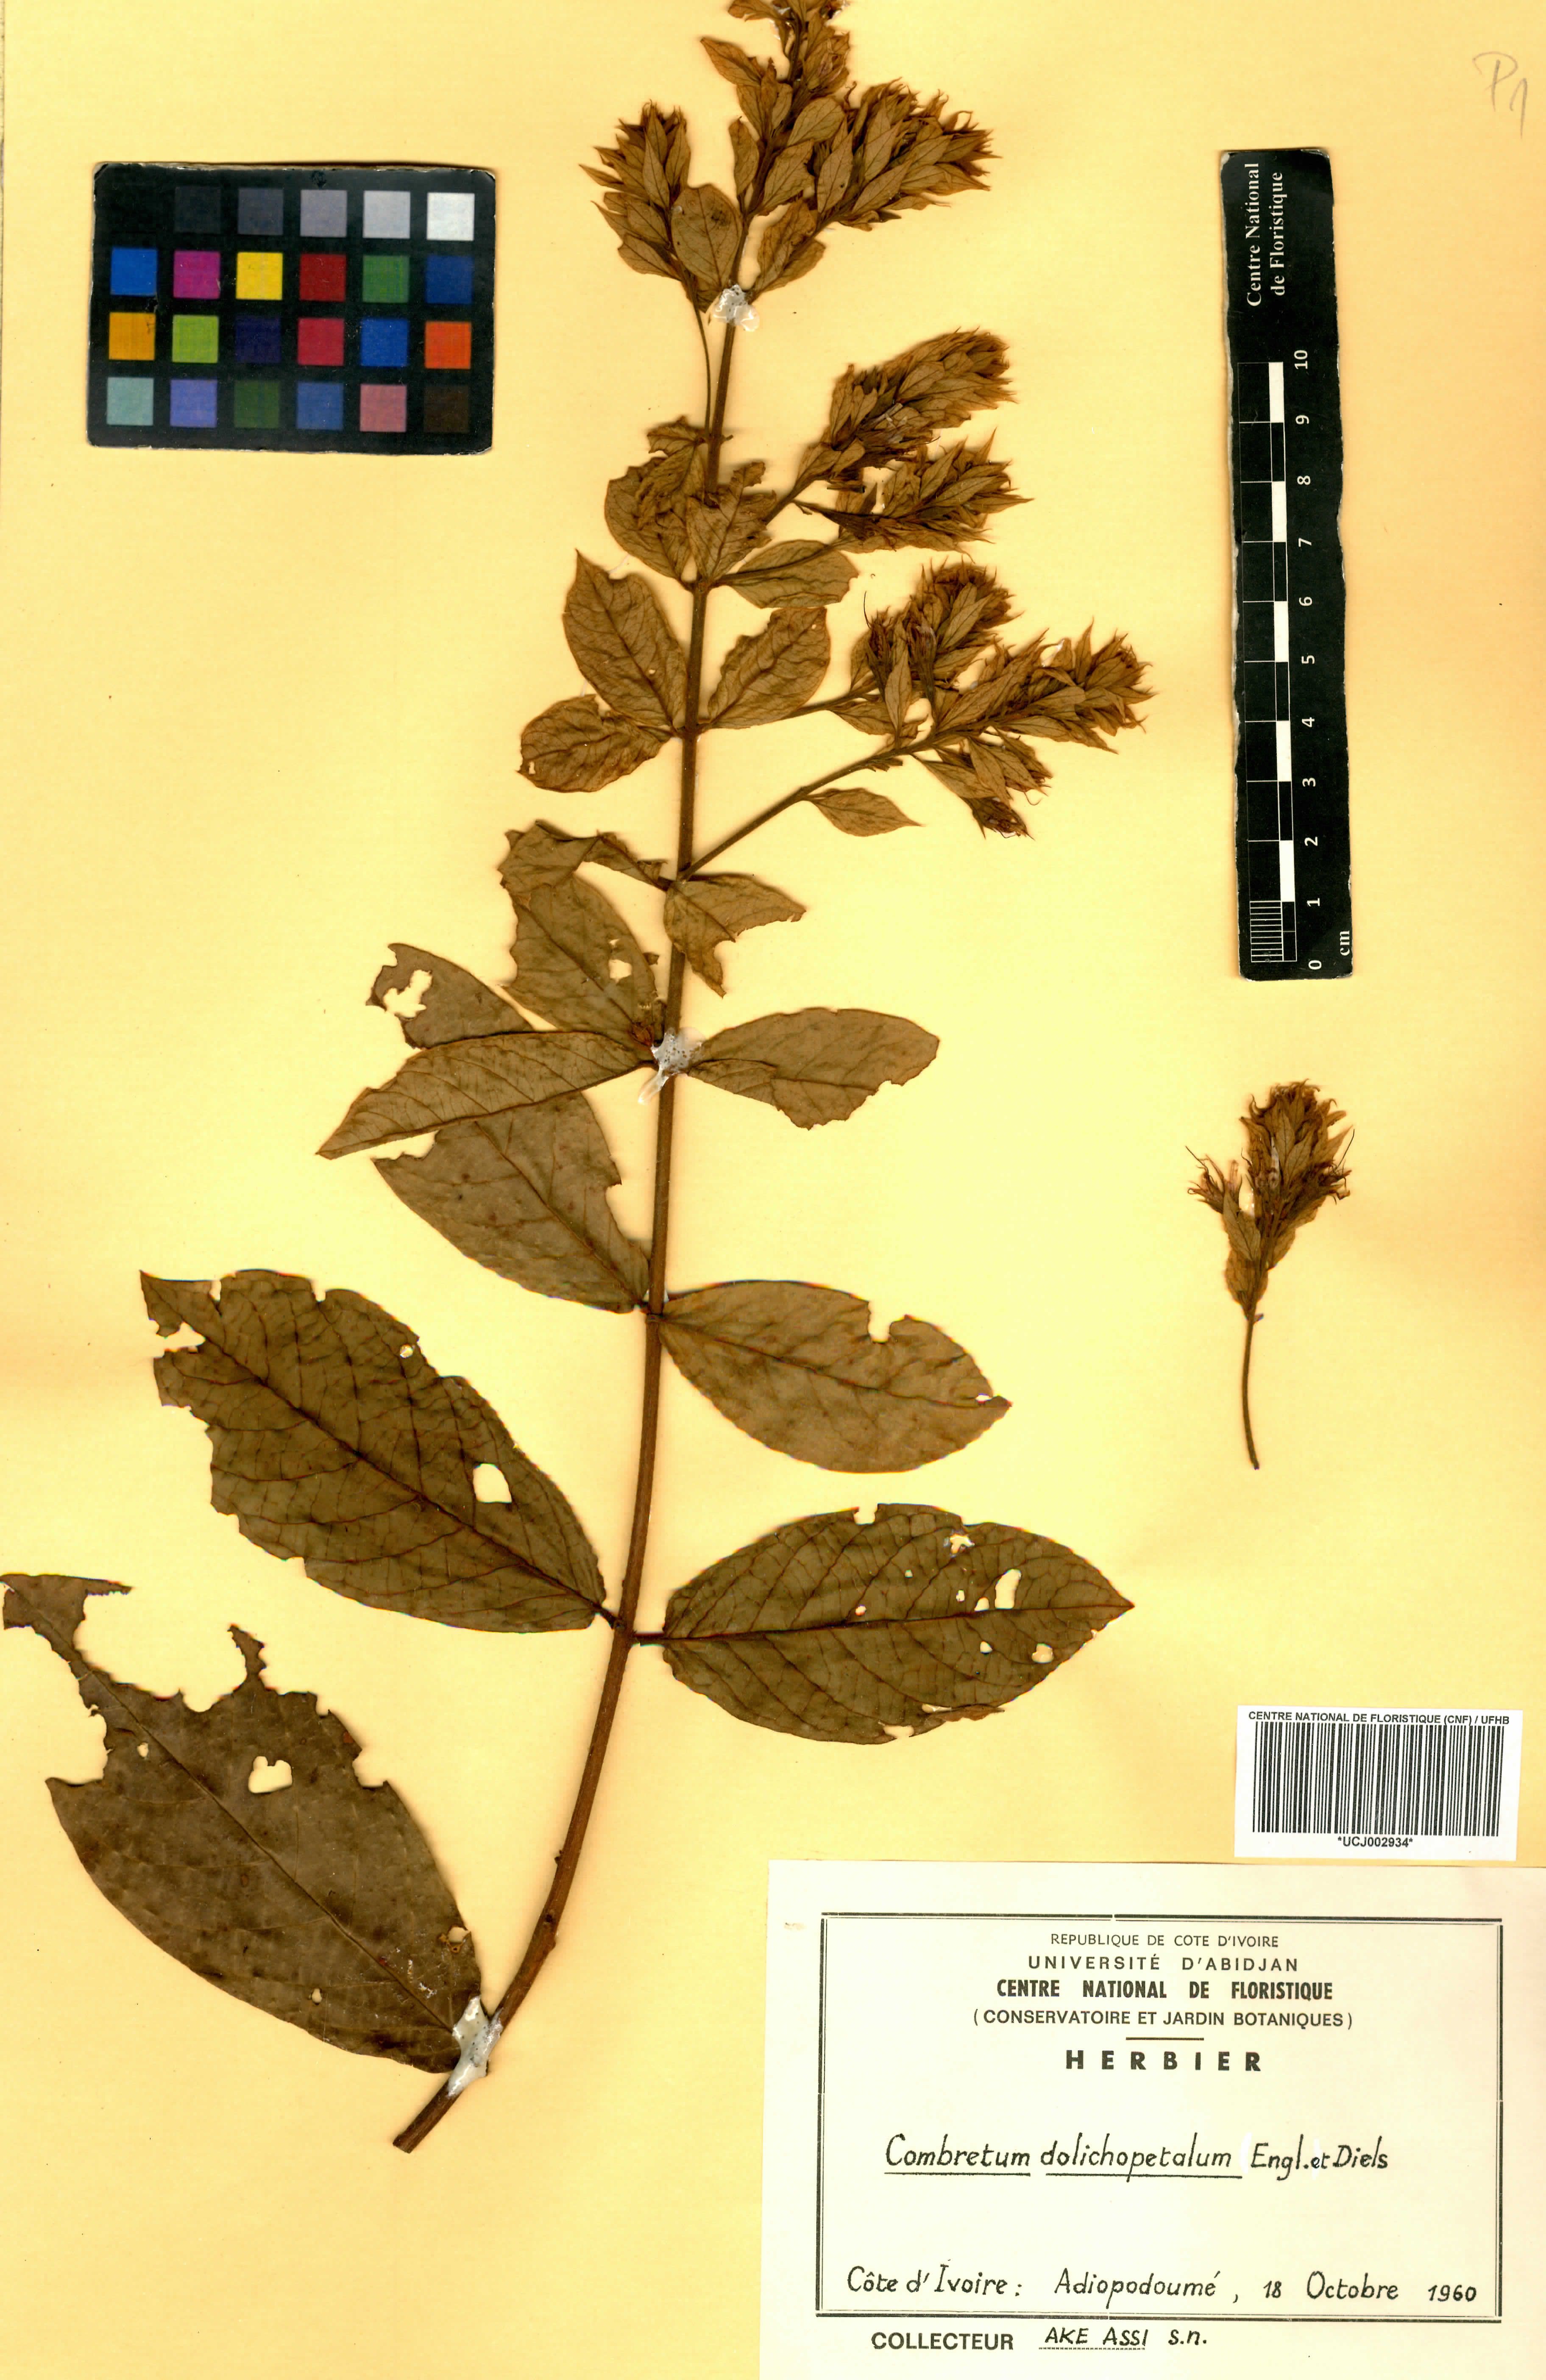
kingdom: Plantae
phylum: Tracheophyta
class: Magnoliopsida
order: Myrtales
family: Combretaceae
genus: Combretum
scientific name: Combretum comosum
